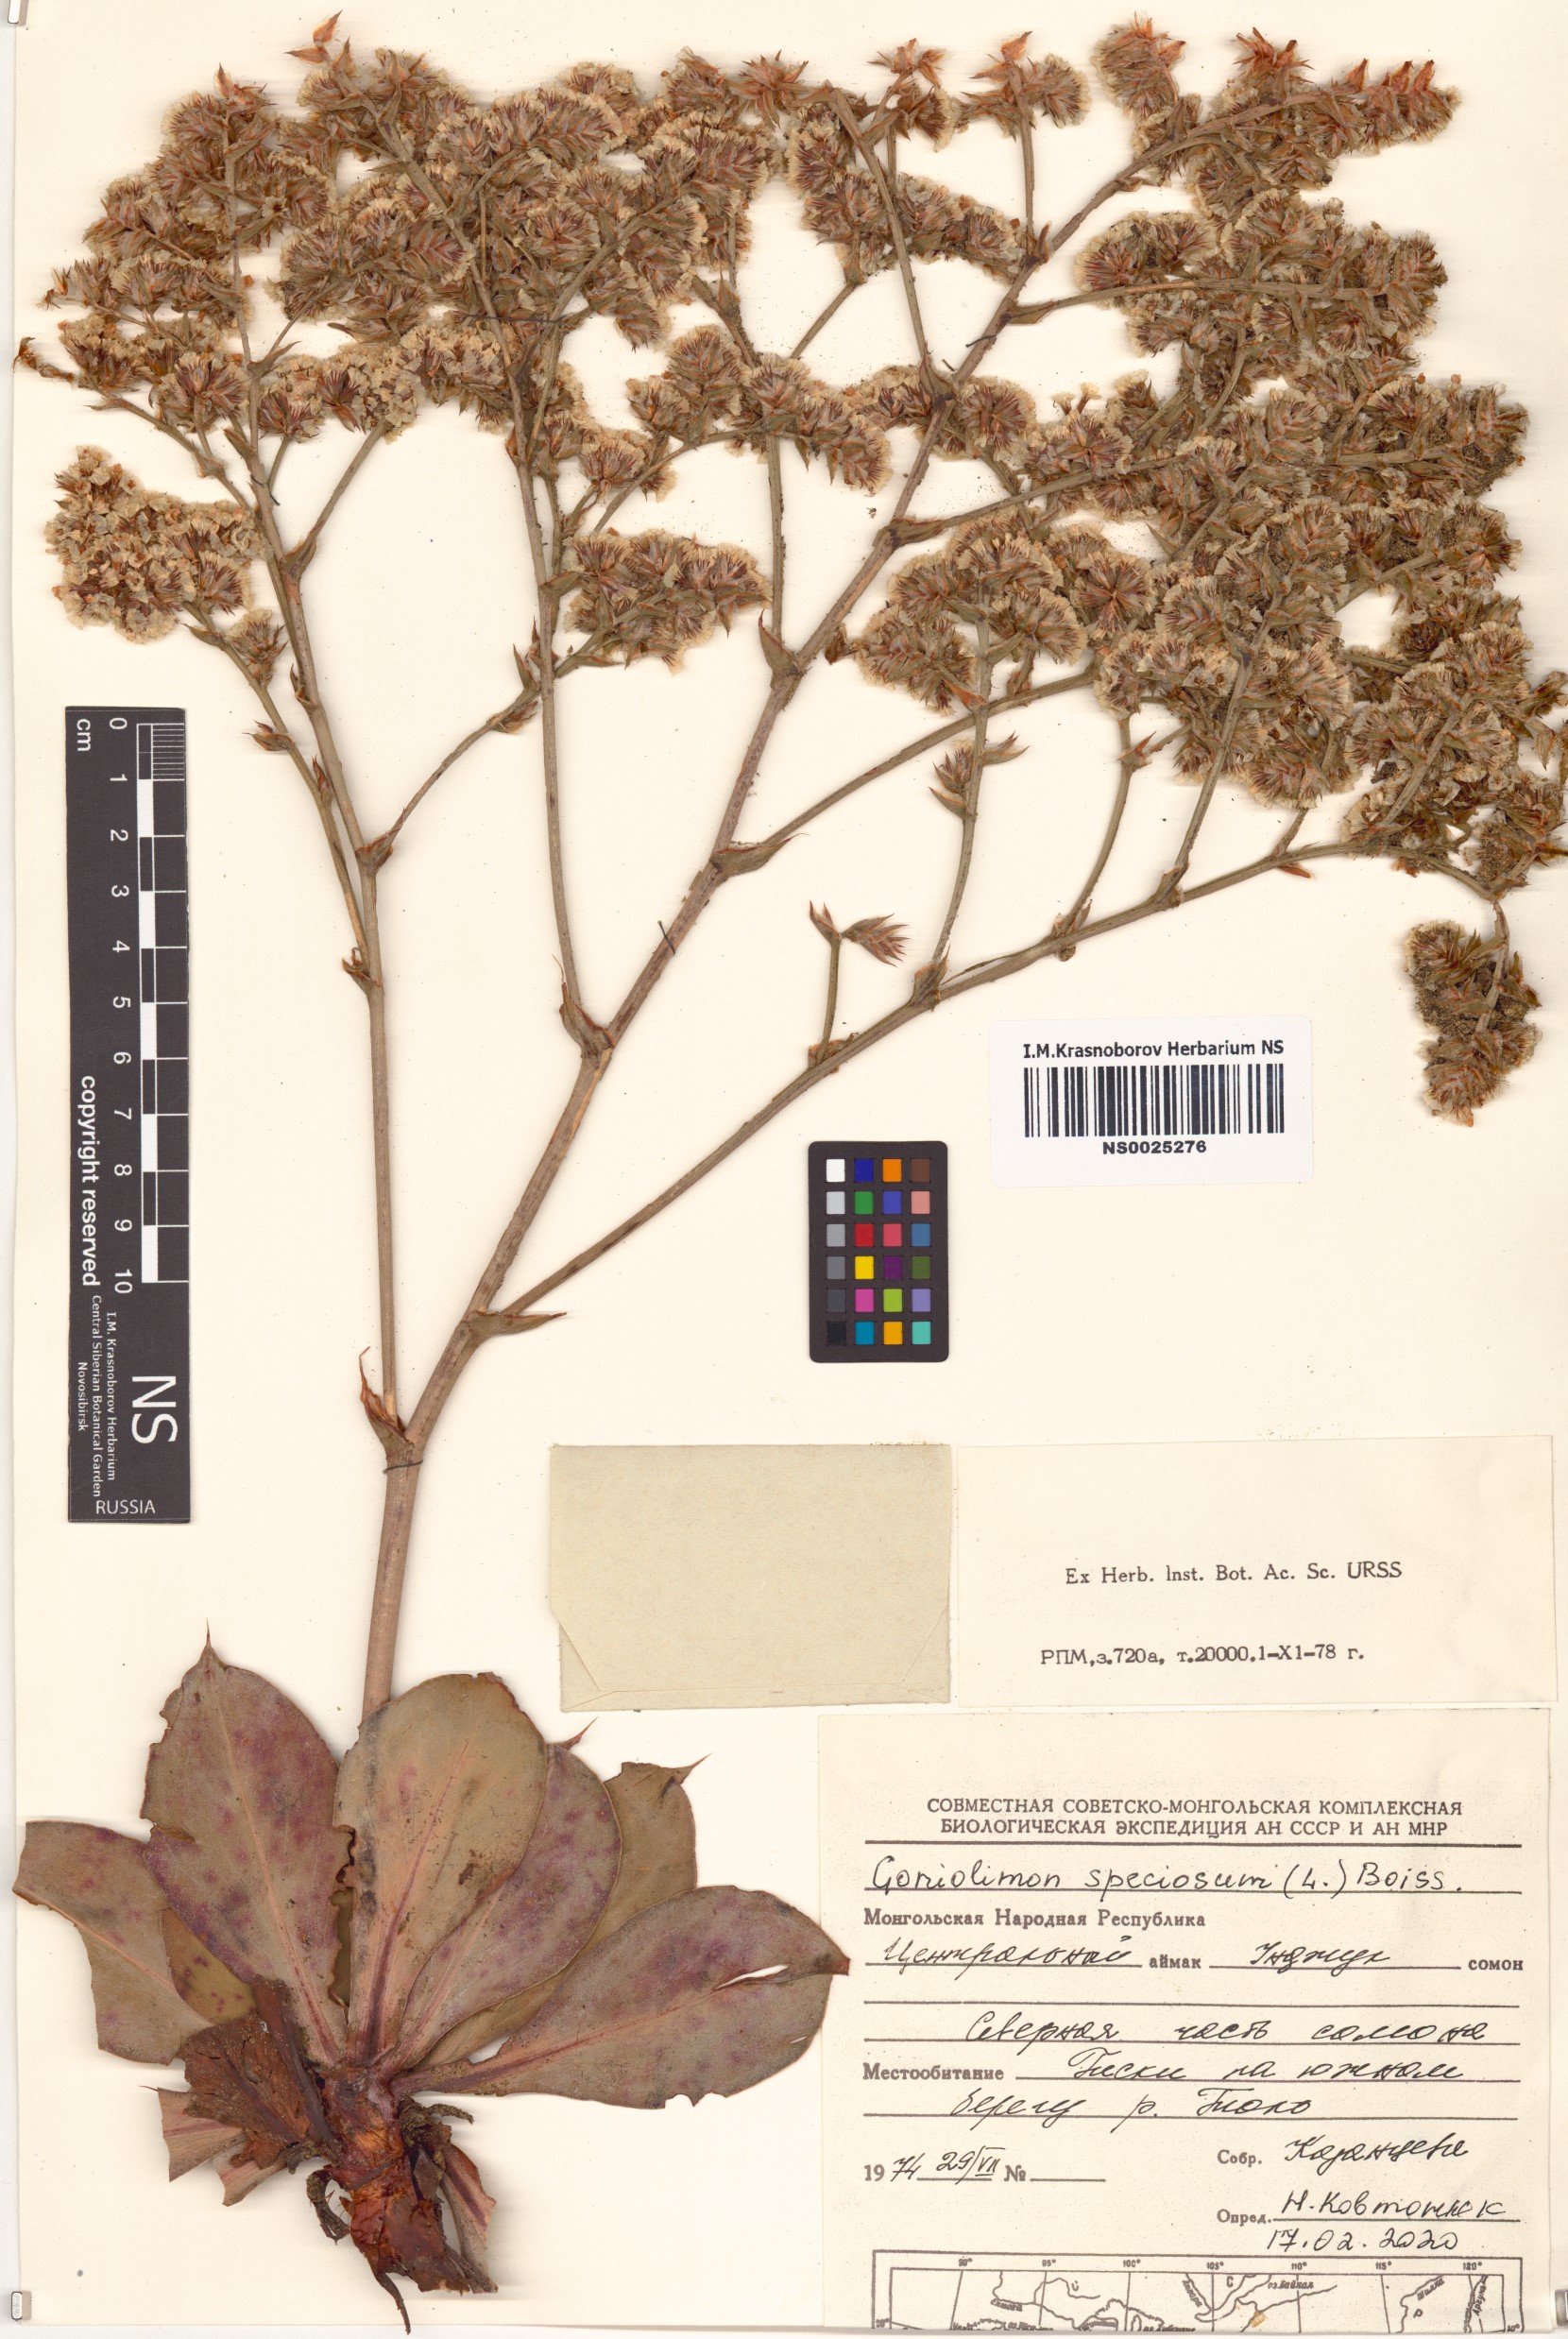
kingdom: Plantae
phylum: Tracheophyta
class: Magnoliopsida
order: Caryophyllales
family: Plumbaginaceae
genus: Goniolimon
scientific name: Goniolimon speciosum
